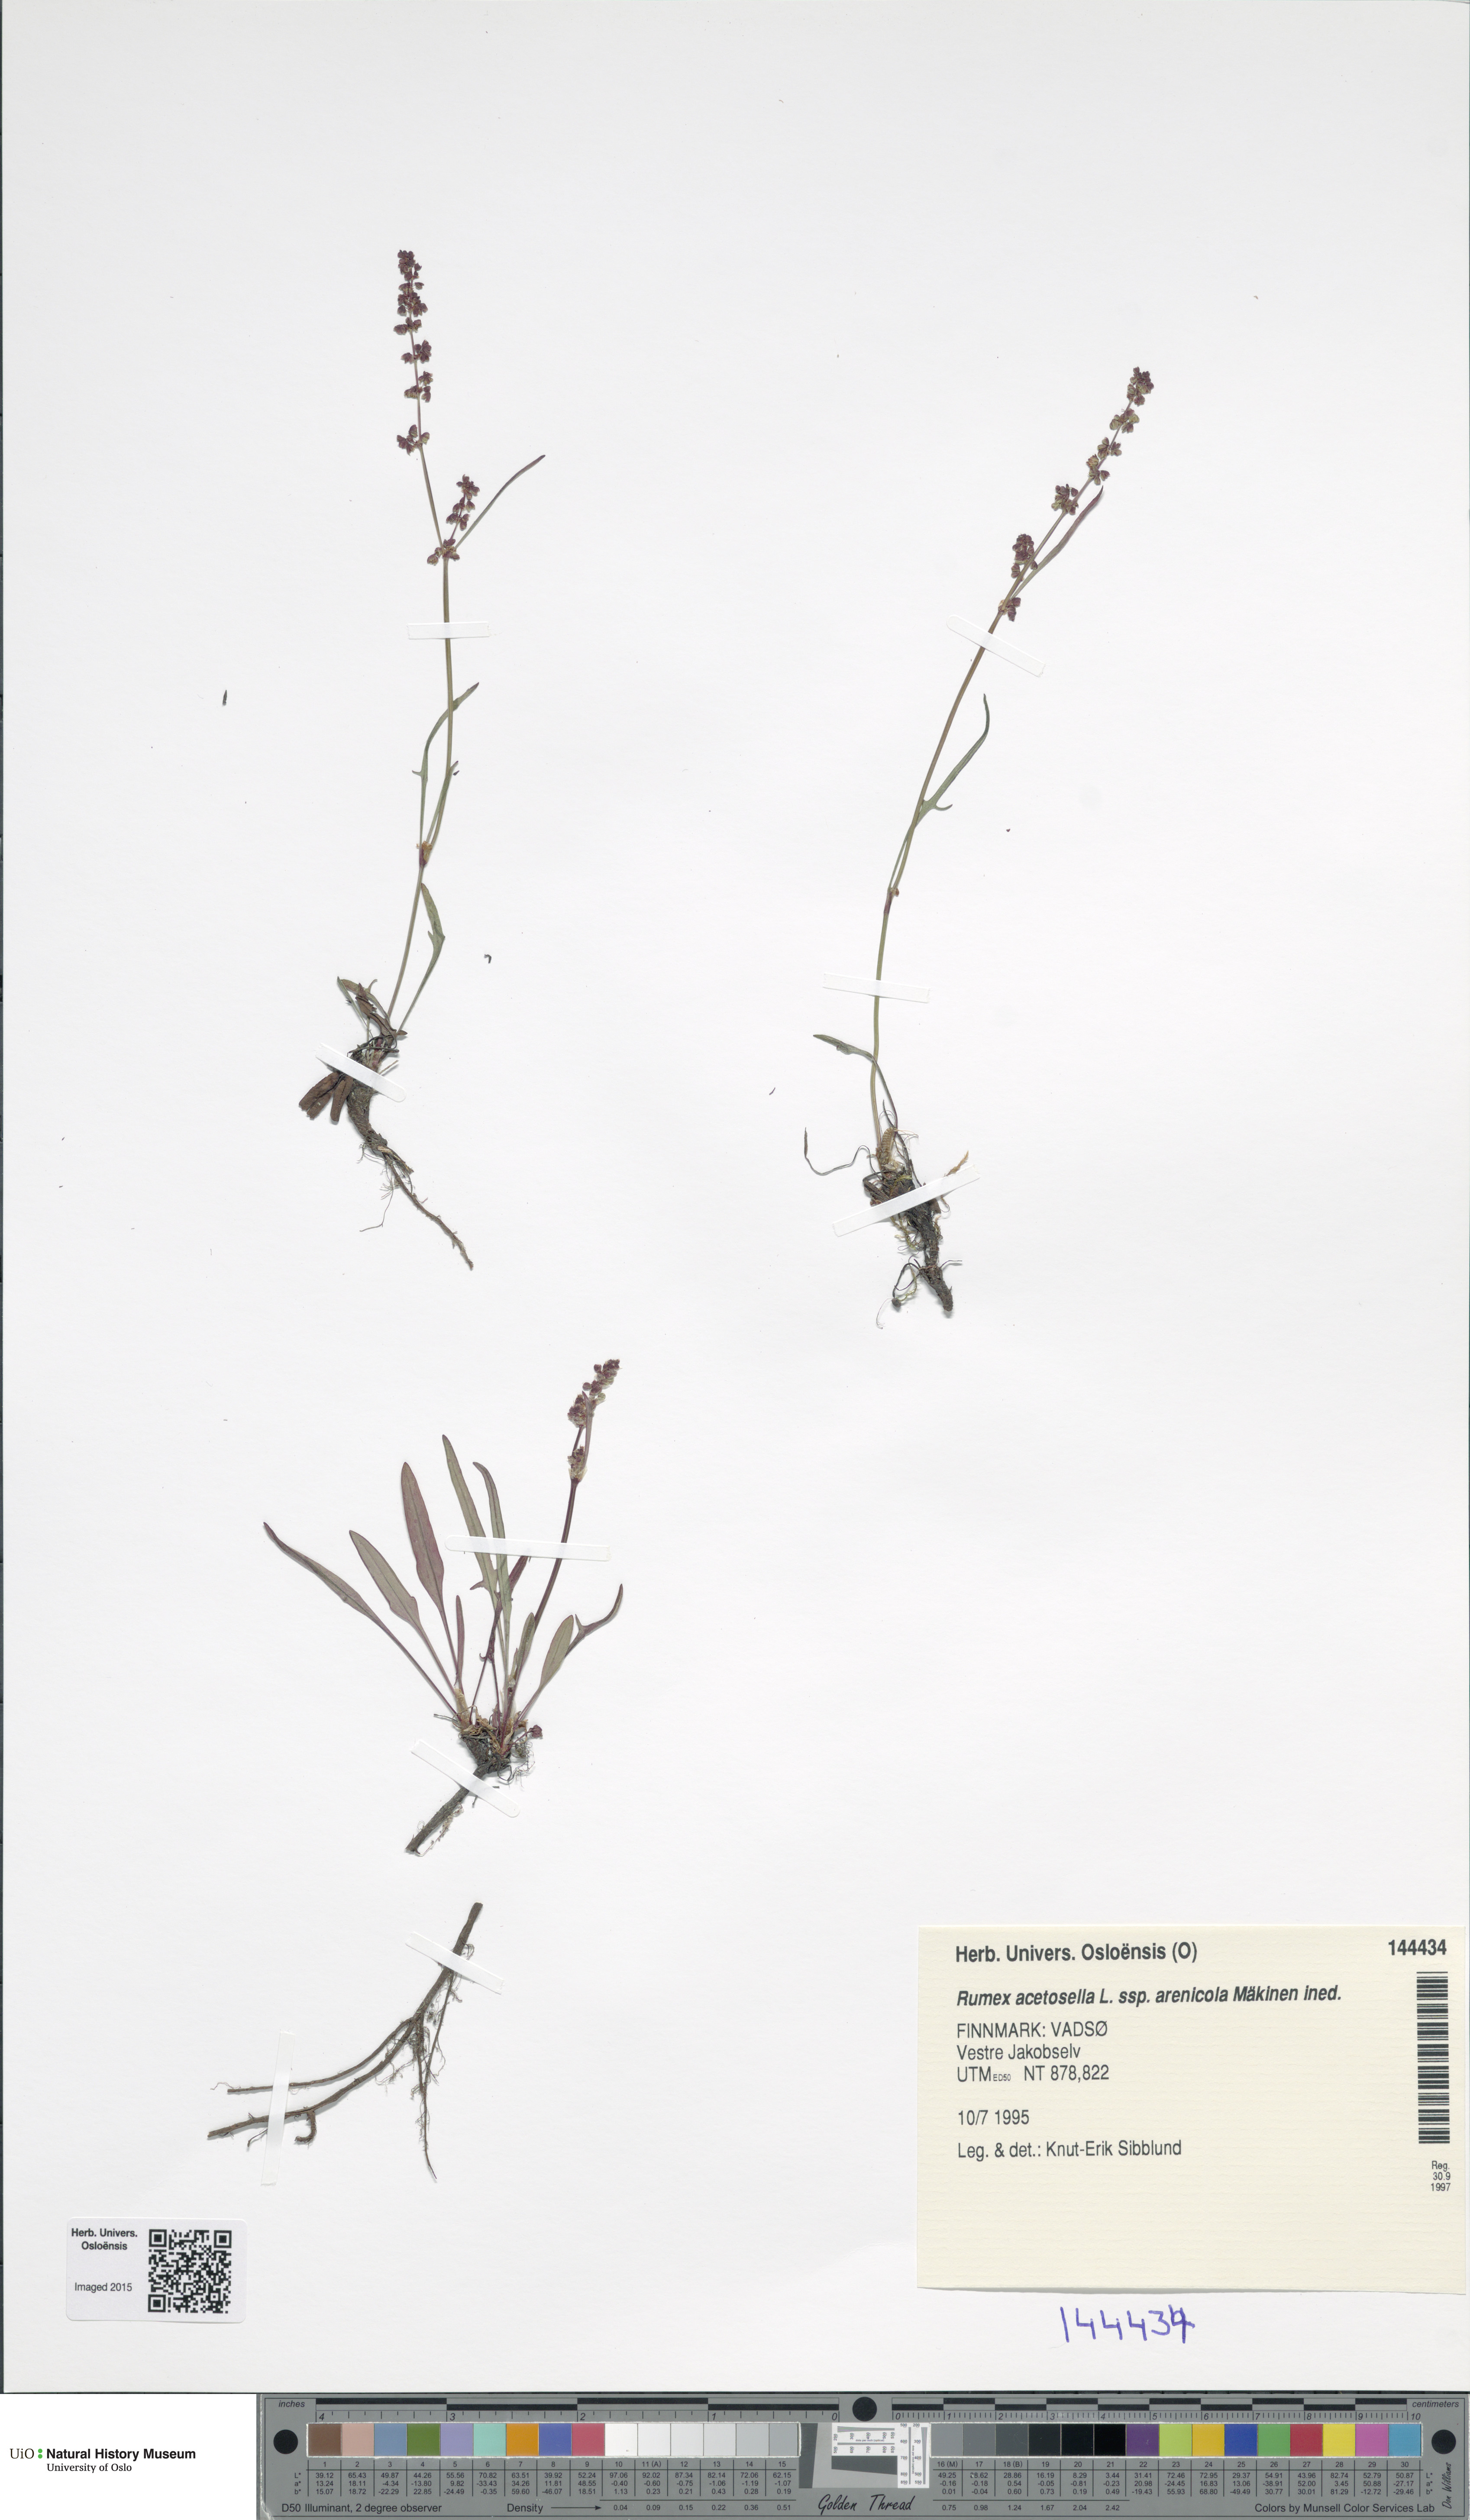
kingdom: Plantae
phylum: Tracheophyta
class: Magnoliopsida
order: Caryophyllales
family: Polygonaceae
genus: Rumex
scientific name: Rumex acetosella
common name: Common sheep sorrel
